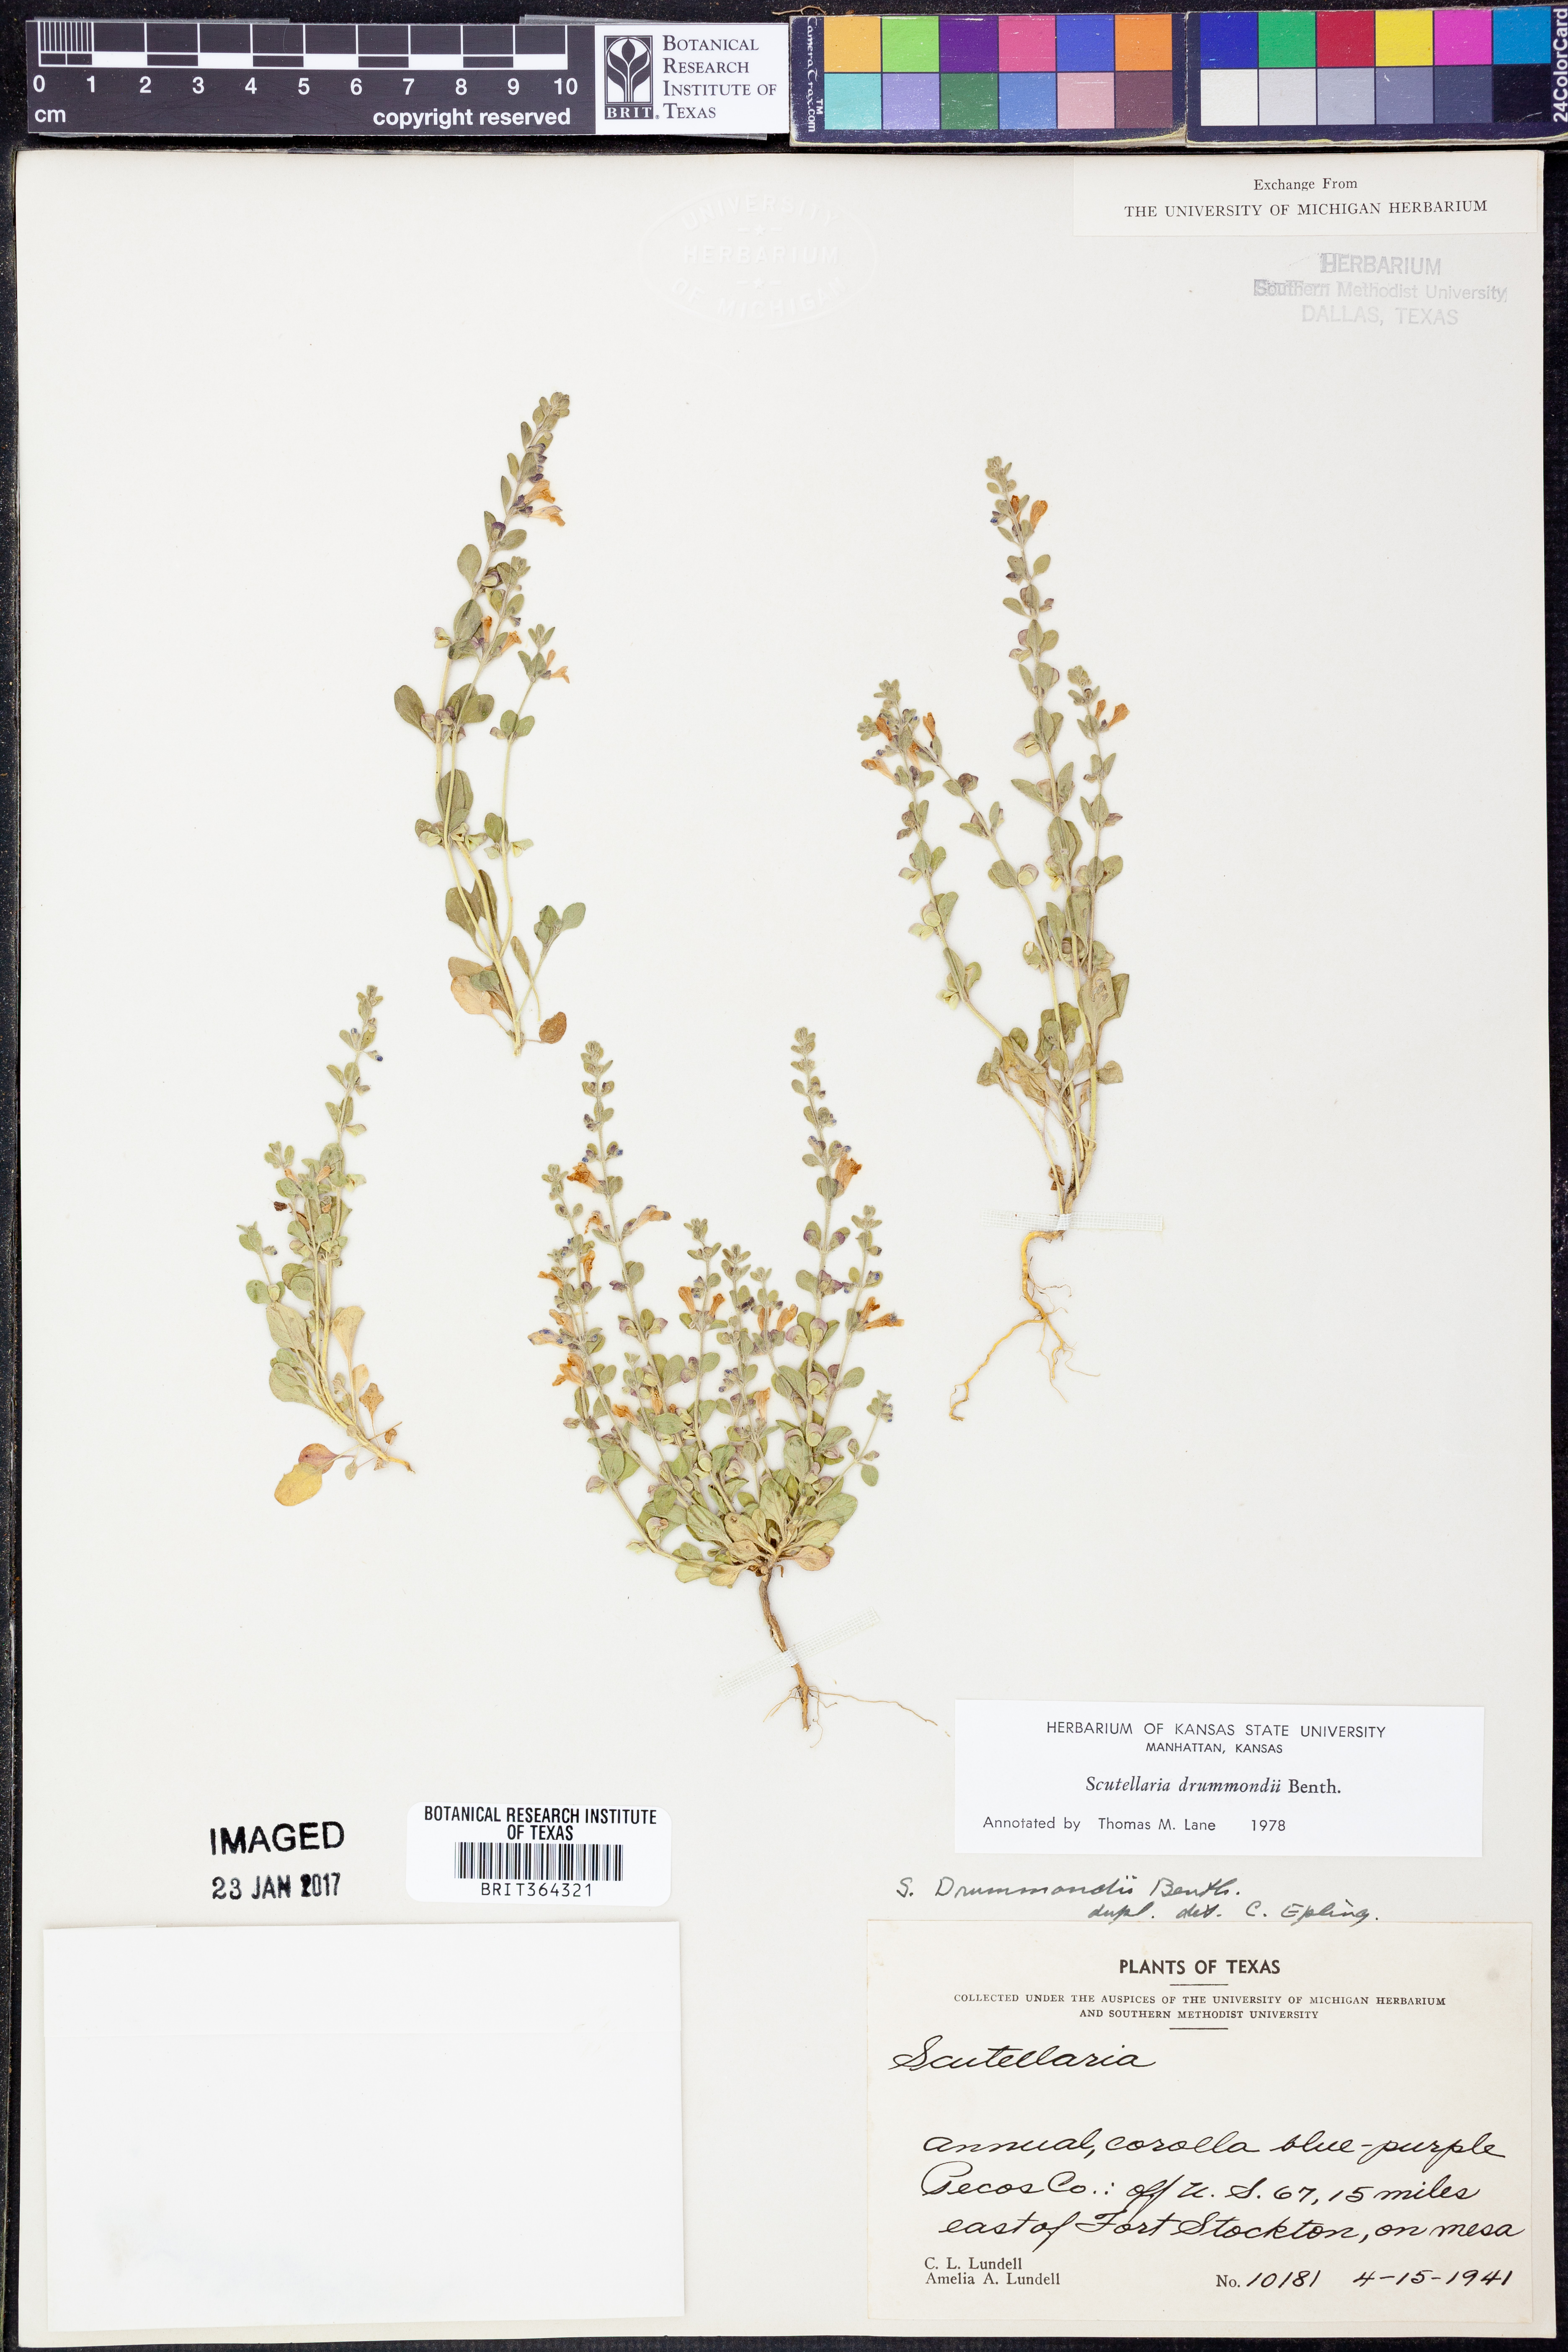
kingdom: Plantae
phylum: Tracheophyta
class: Magnoliopsida
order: Lamiales
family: Lamiaceae
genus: Scutellaria
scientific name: Scutellaria drummondii
